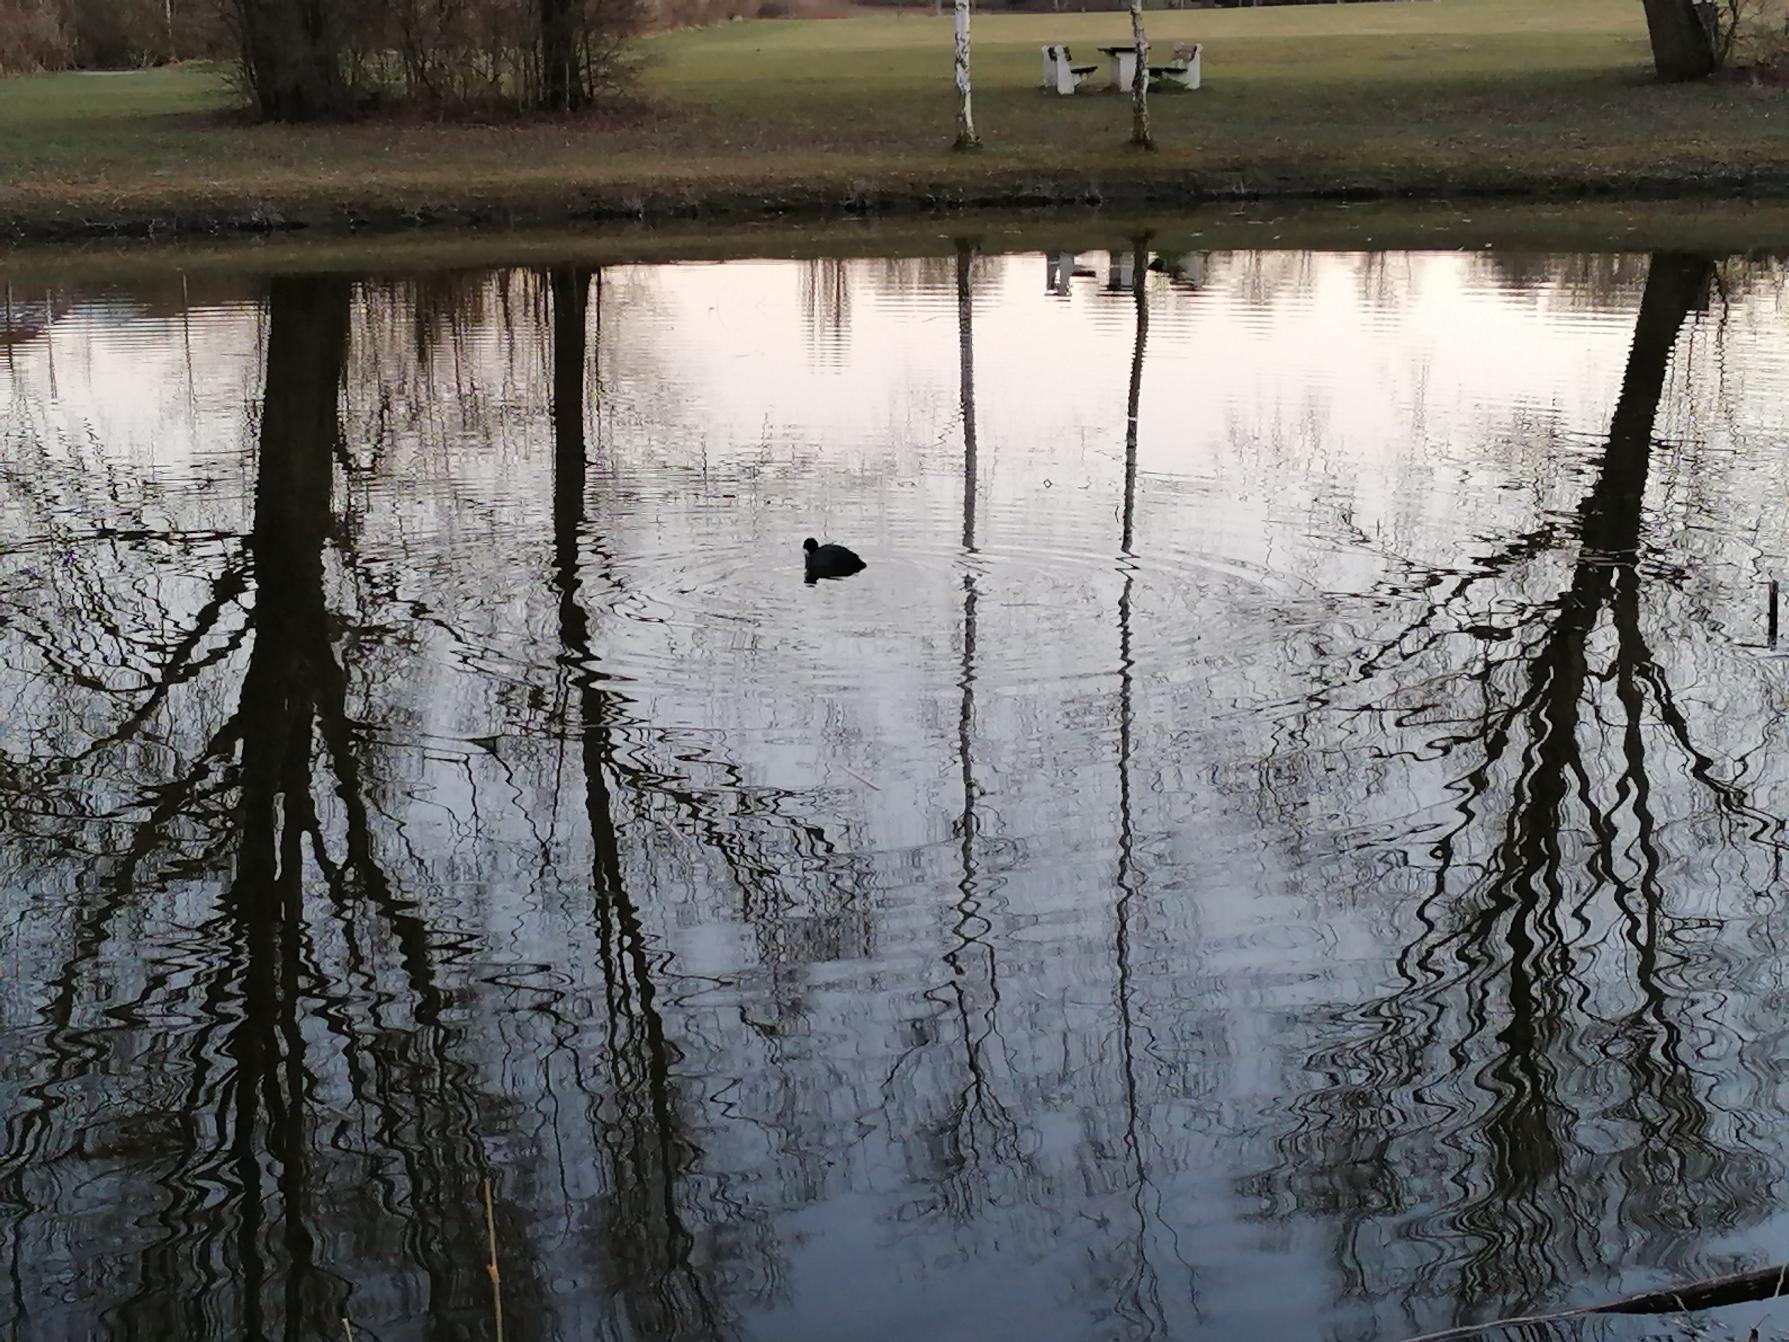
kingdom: Animalia
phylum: Chordata
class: Aves
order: Gruiformes
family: Rallidae
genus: Fulica
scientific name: Fulica atra
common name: Blishøne
